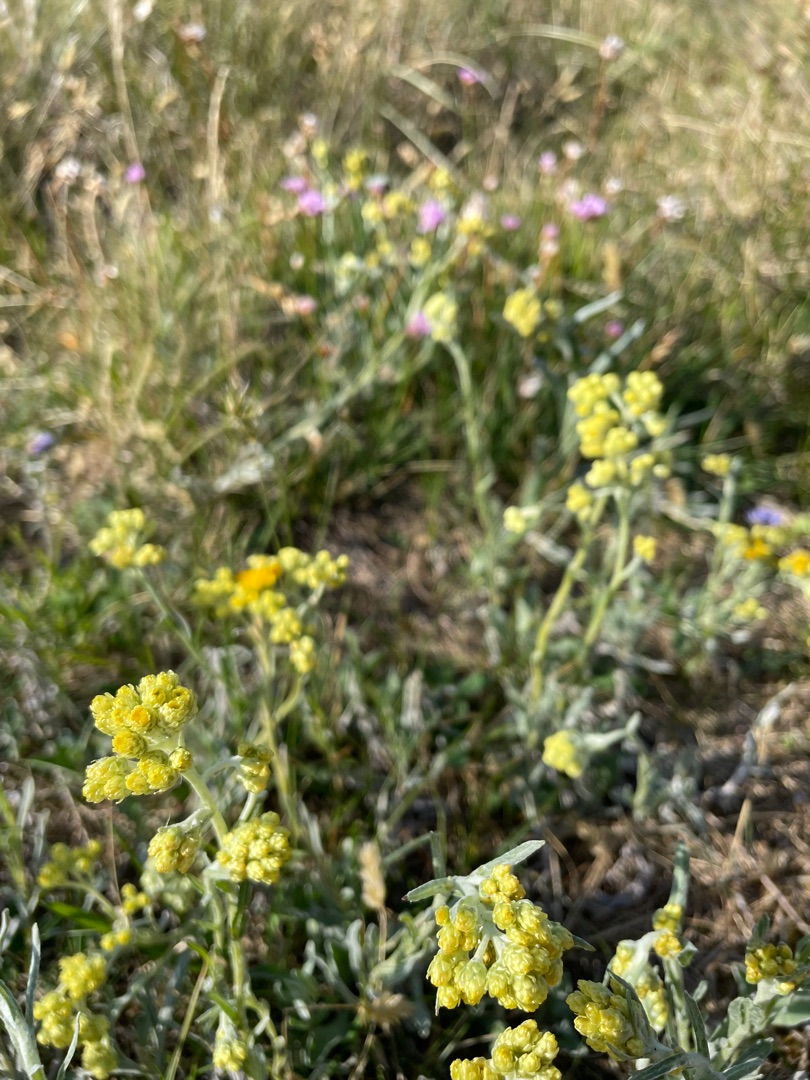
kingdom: Plantae
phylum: Tracheophyta
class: Magnoliopsida
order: Asterales
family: Asteraceae
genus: Helichrysum
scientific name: Helichrysum arenarium
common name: Gul evighedsblomst
